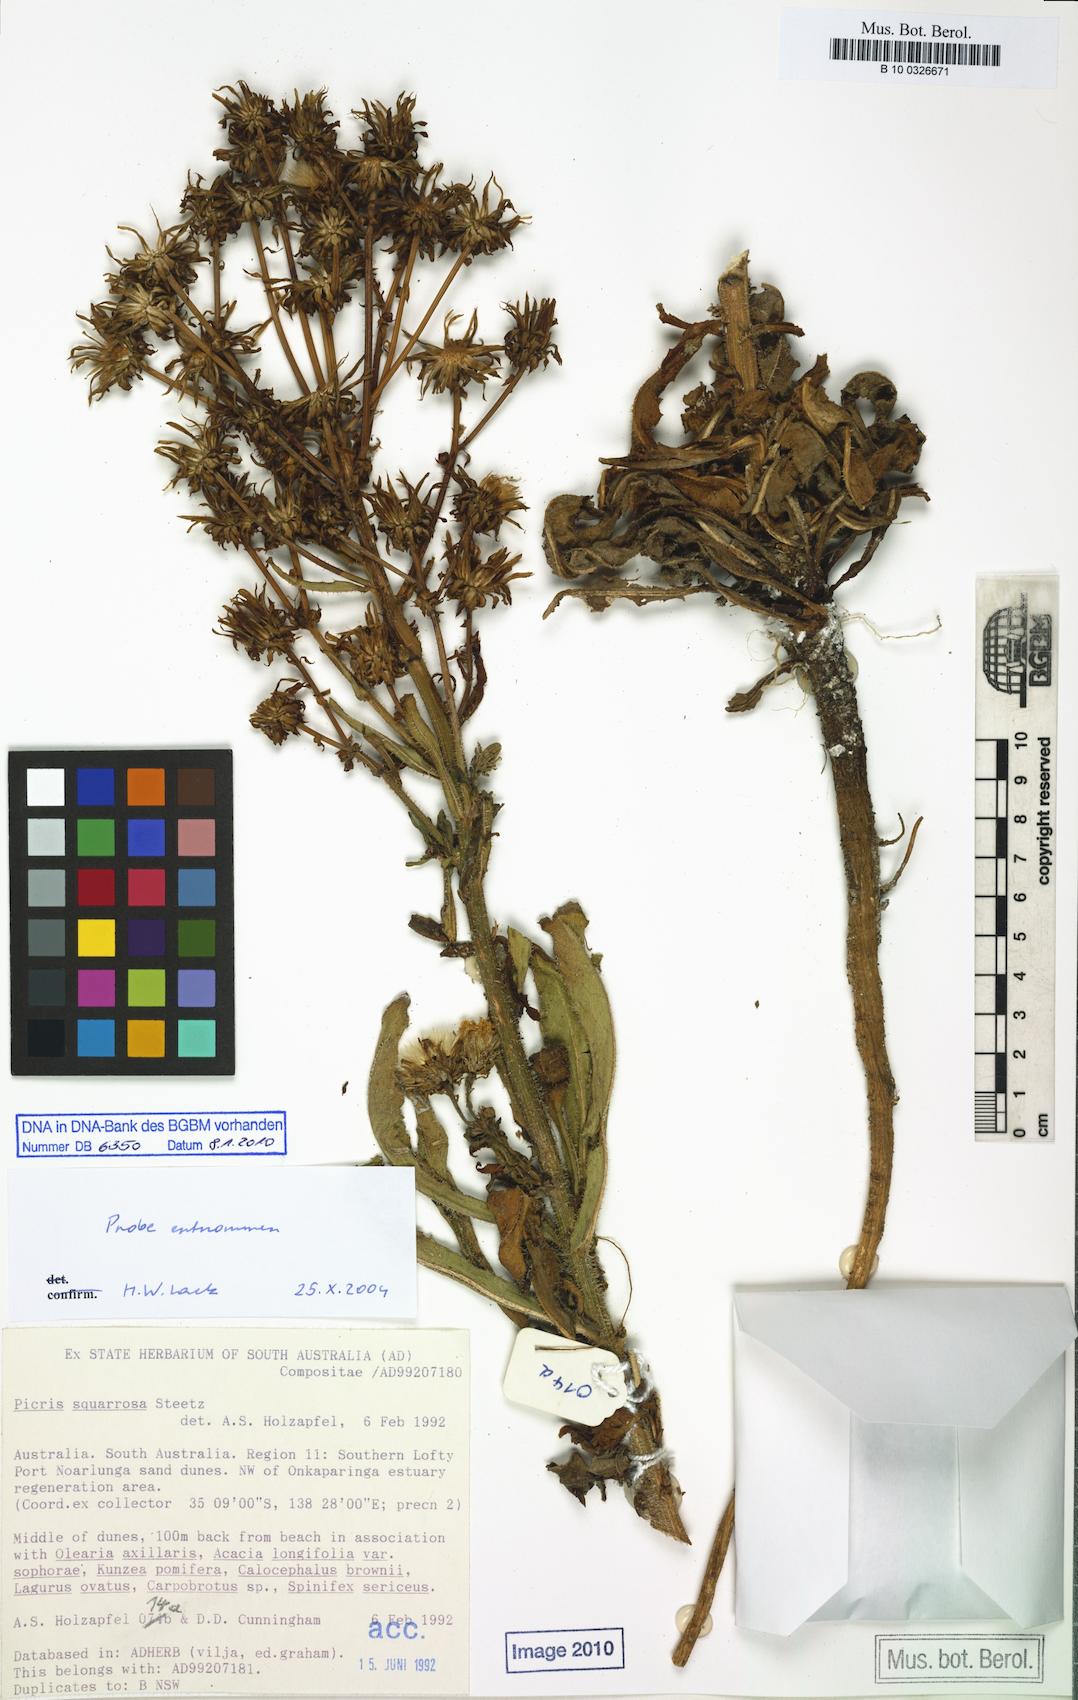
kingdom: Plantae
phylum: Tracheophyta
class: Magnoliopsida
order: Asterales
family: Asteraceae
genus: Picris
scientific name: Picris squarrosa
